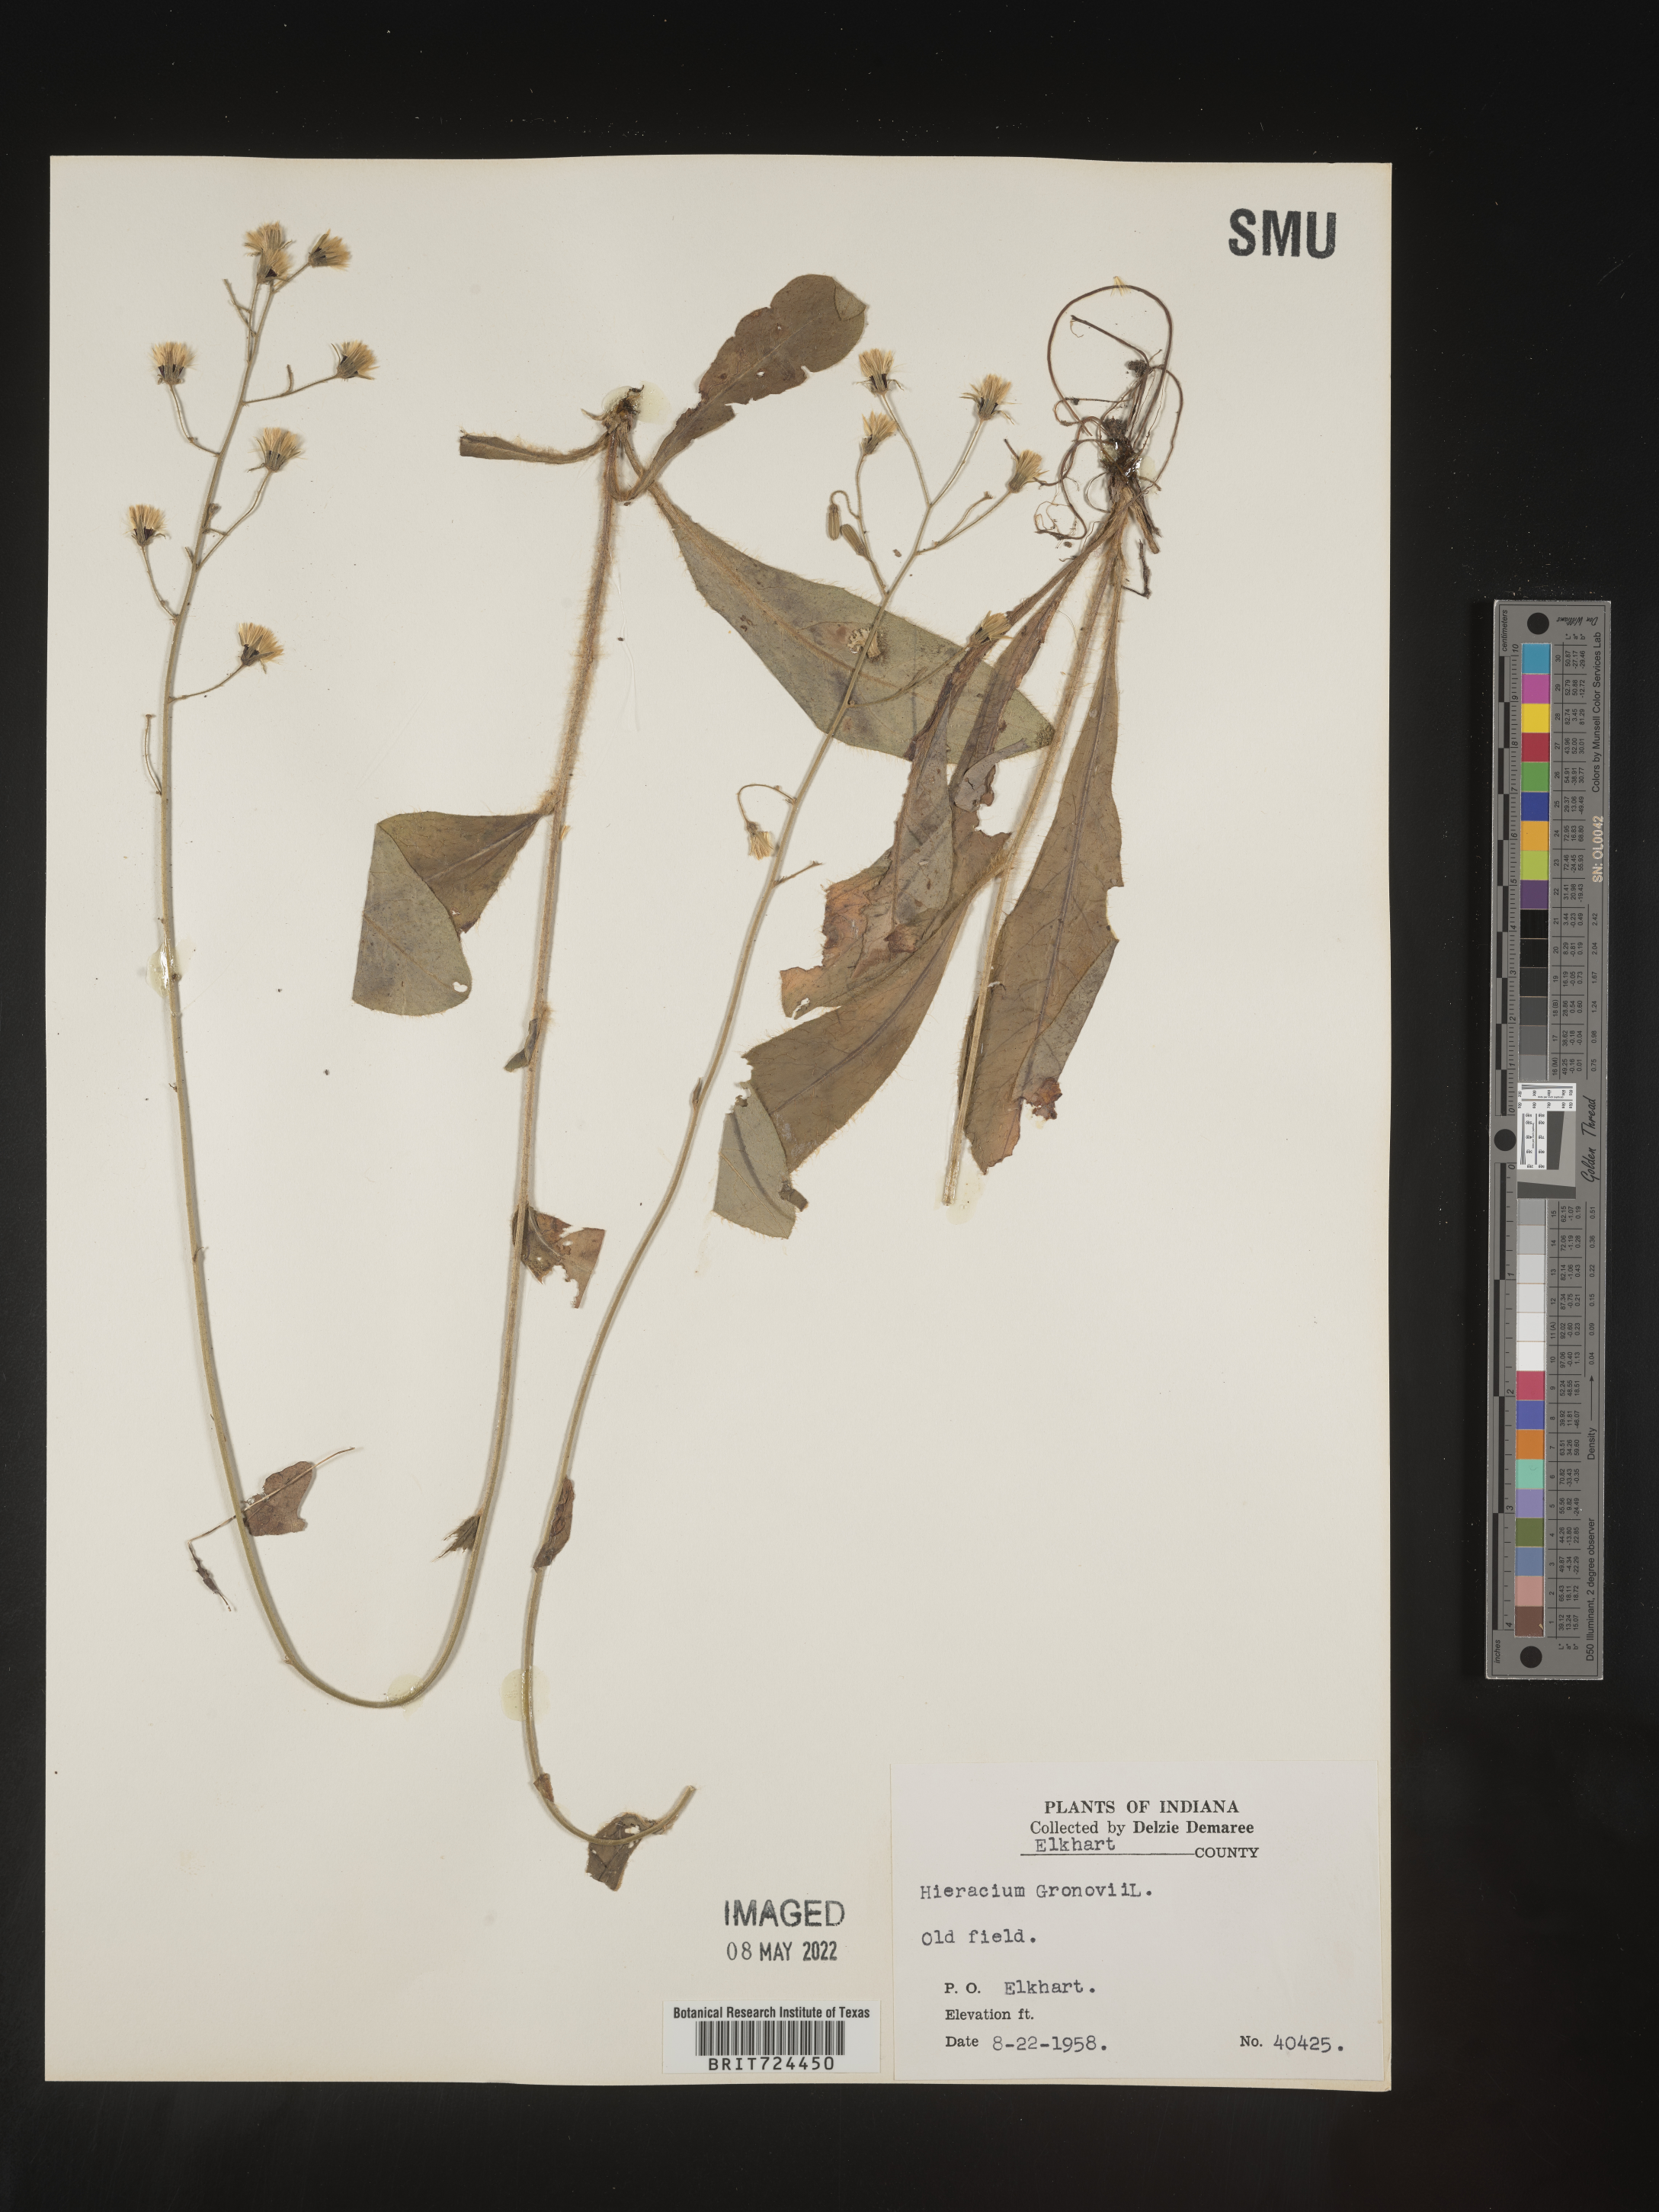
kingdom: Plantae
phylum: Tracheophyta
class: Magnoliopsida
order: Asterales
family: Asteraceae
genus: Hieracium
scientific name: Hieracium gronovii
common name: Beaked hawkweed
